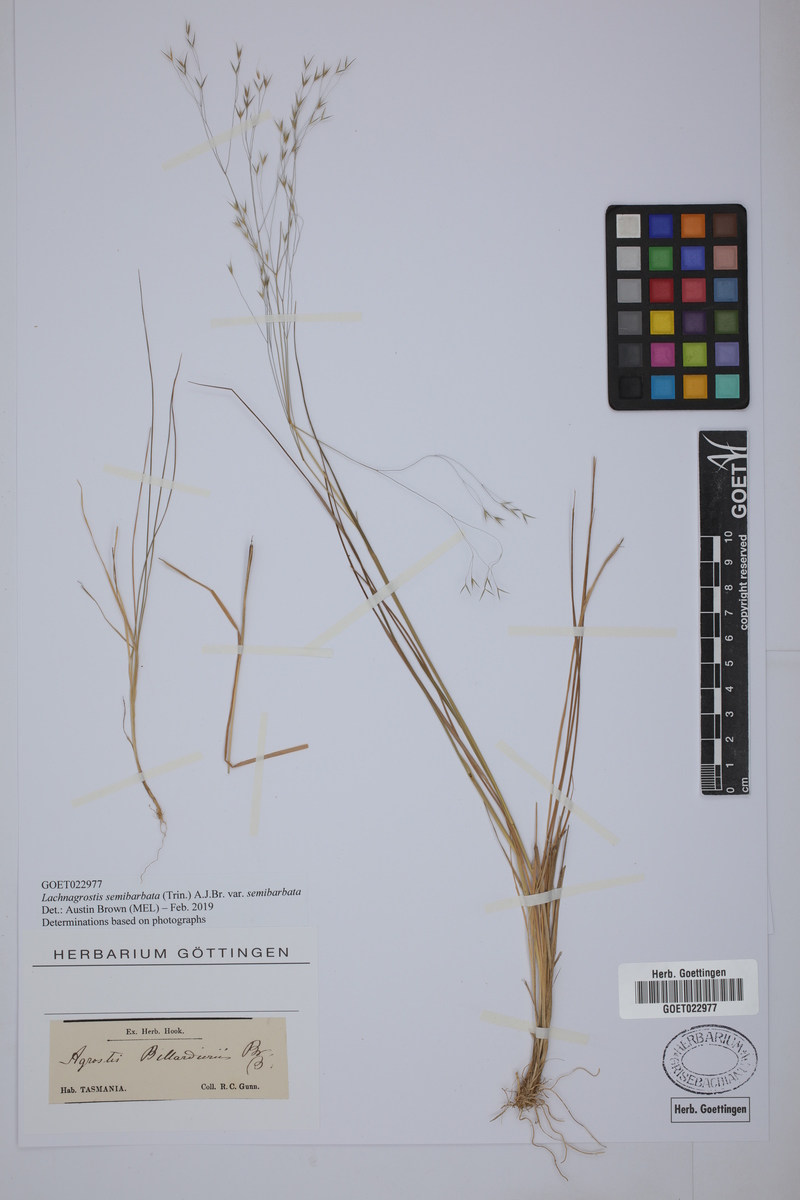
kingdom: Plantae
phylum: Tracheophyta
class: Liliopsida
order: Poales
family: Poaceae
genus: Lachnagrostis
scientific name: Lachnagrostis semibarbata
